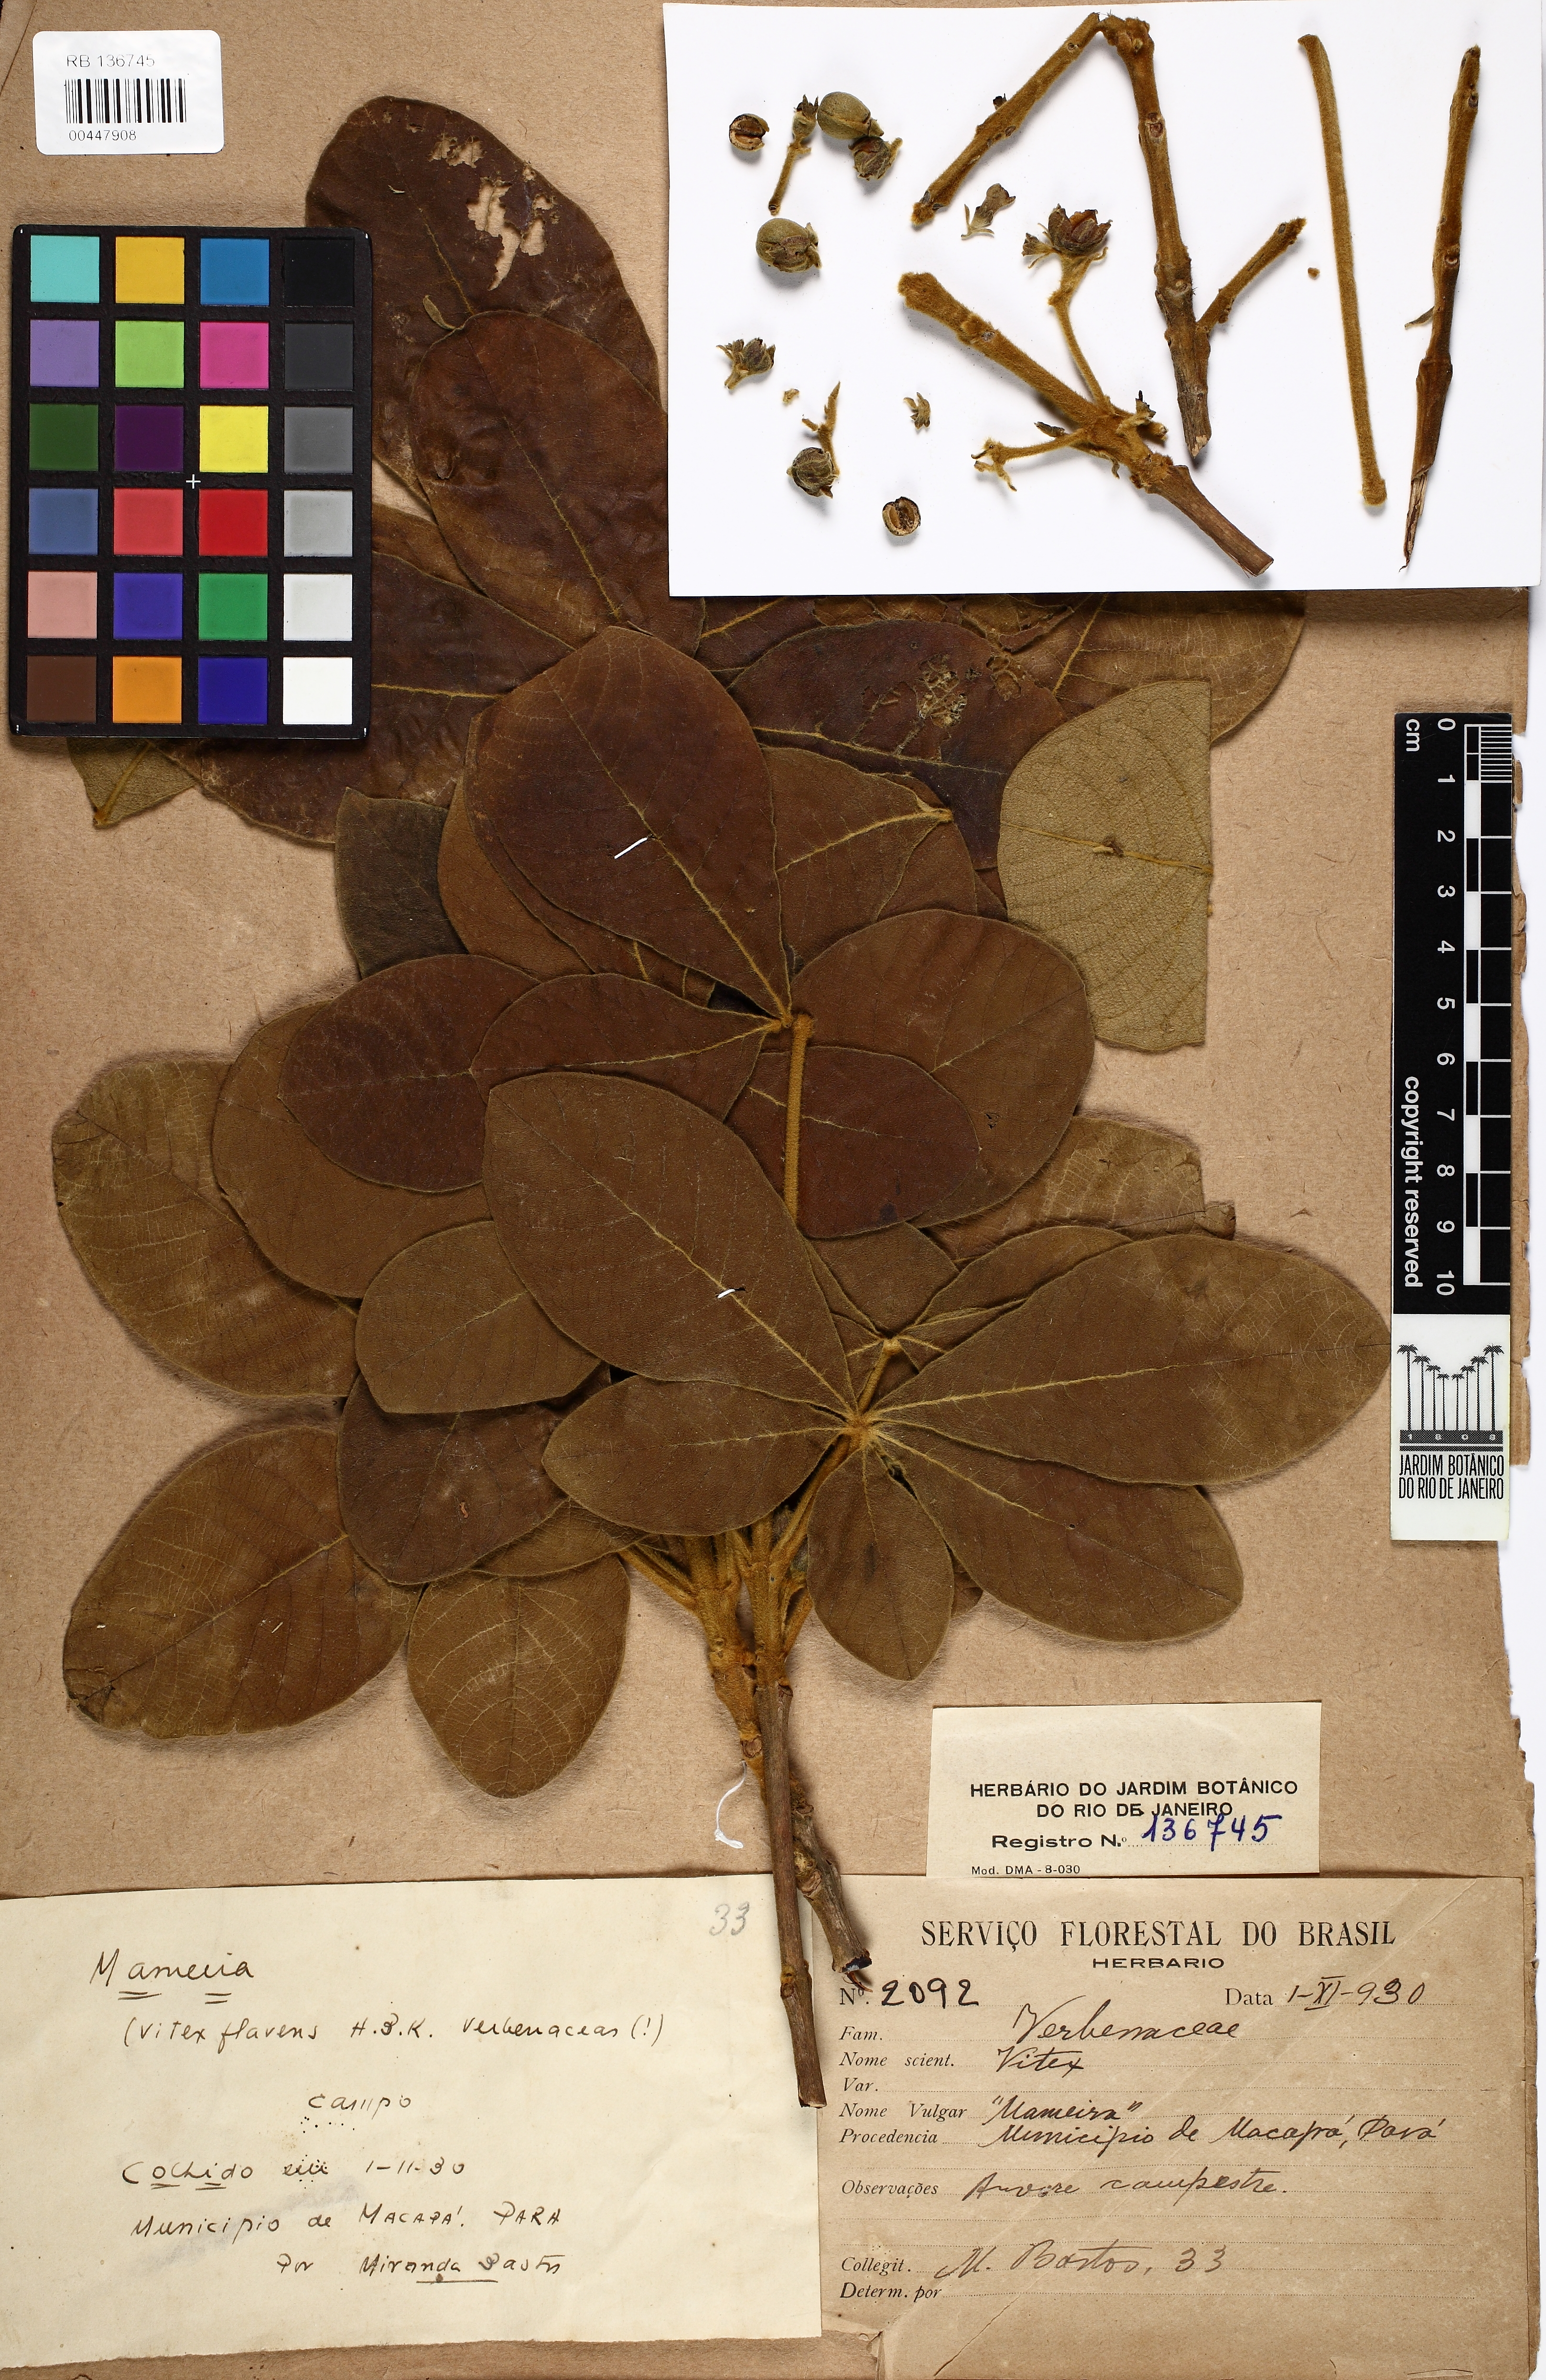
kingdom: Plantae
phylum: Tracheophyta
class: Magnoliopsida
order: Lamiales
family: Lamiaceae
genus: Vitex
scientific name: Vitex flavens
